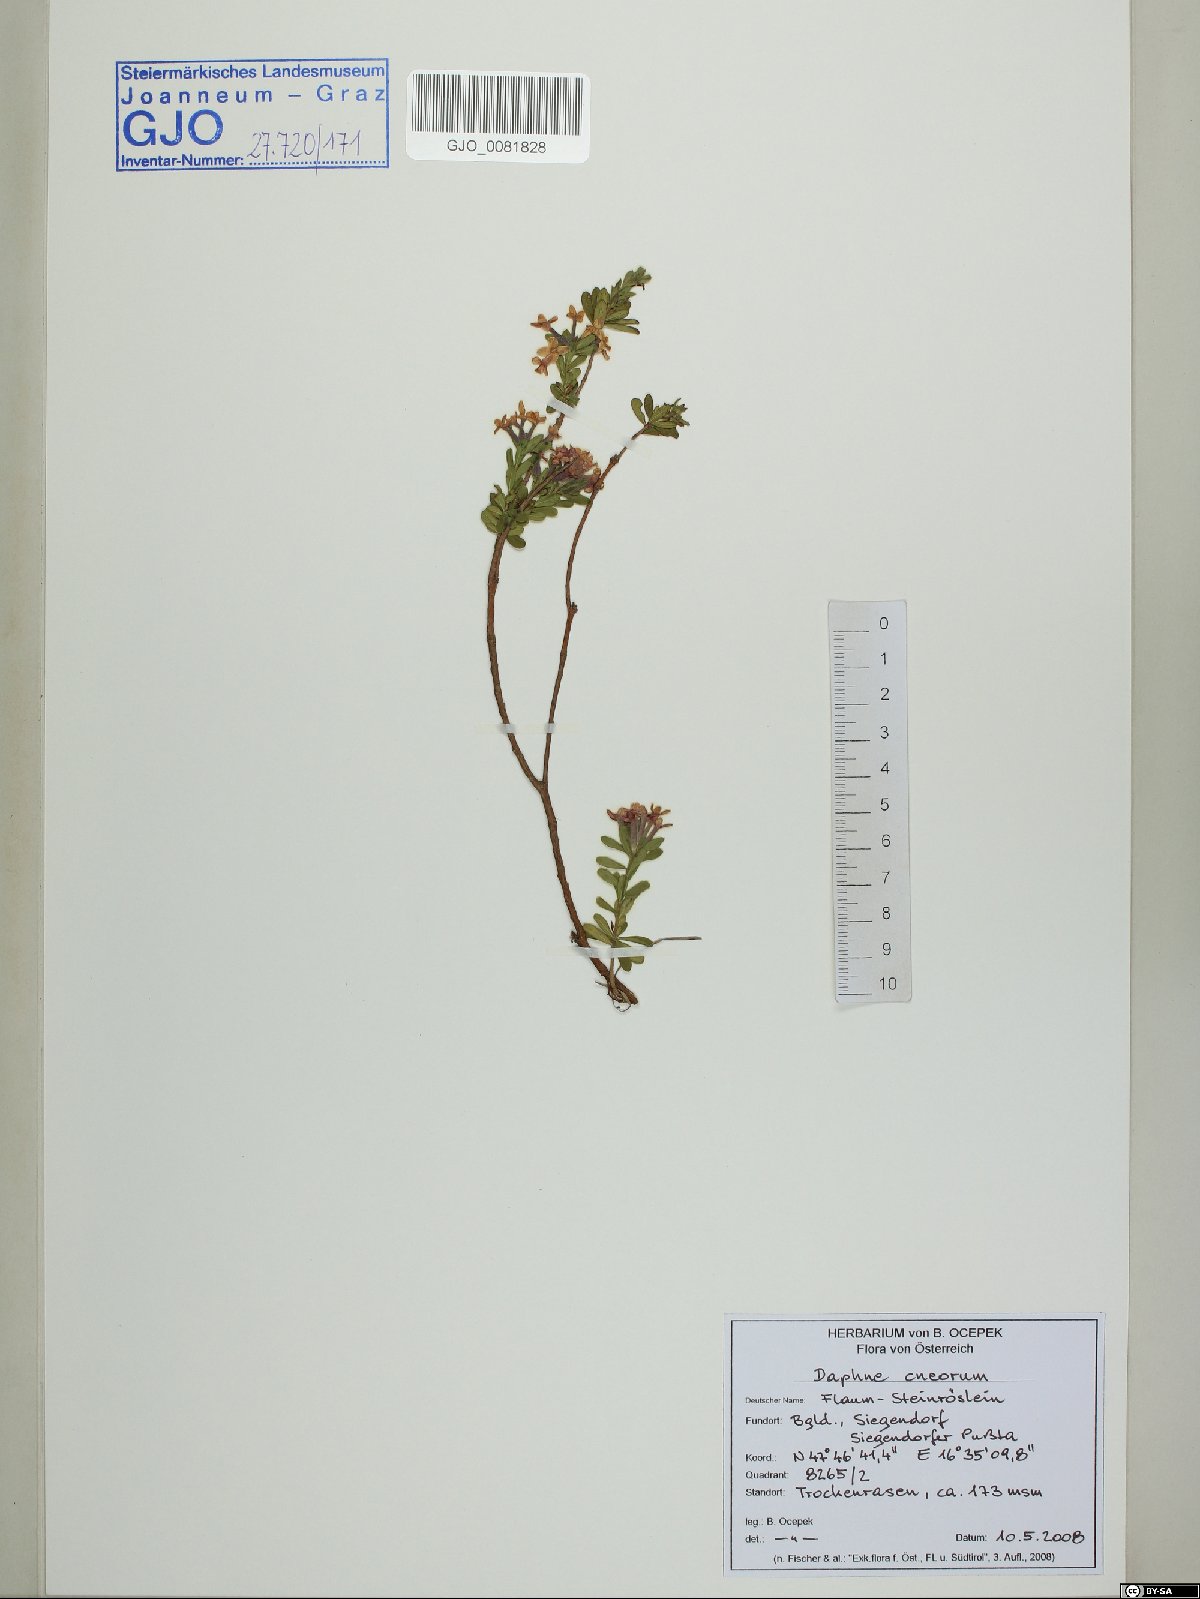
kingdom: Plantae
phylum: Tracheophyta
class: Magnoliopsida
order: Malvales
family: Thymelaeaceae
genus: Daphne
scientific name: Daphne cneorum
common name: Garland-flower
